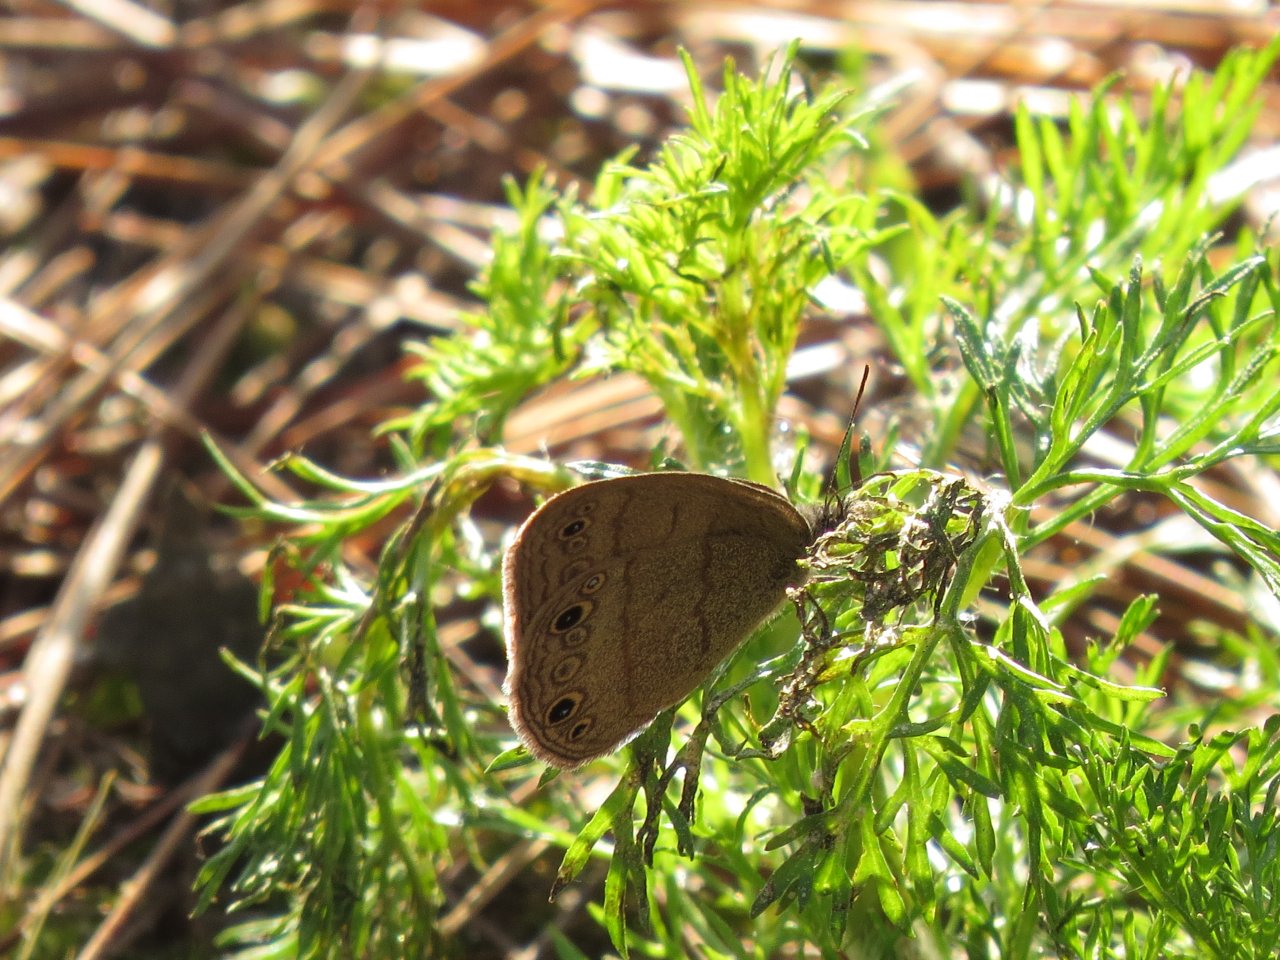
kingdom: Animalia
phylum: Arthropoda
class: Insecta
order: Lepidoptera
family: Nymphalidae
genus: Hermeuptychia
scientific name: Hermeuptychia hermes
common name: Carolina Satyr
